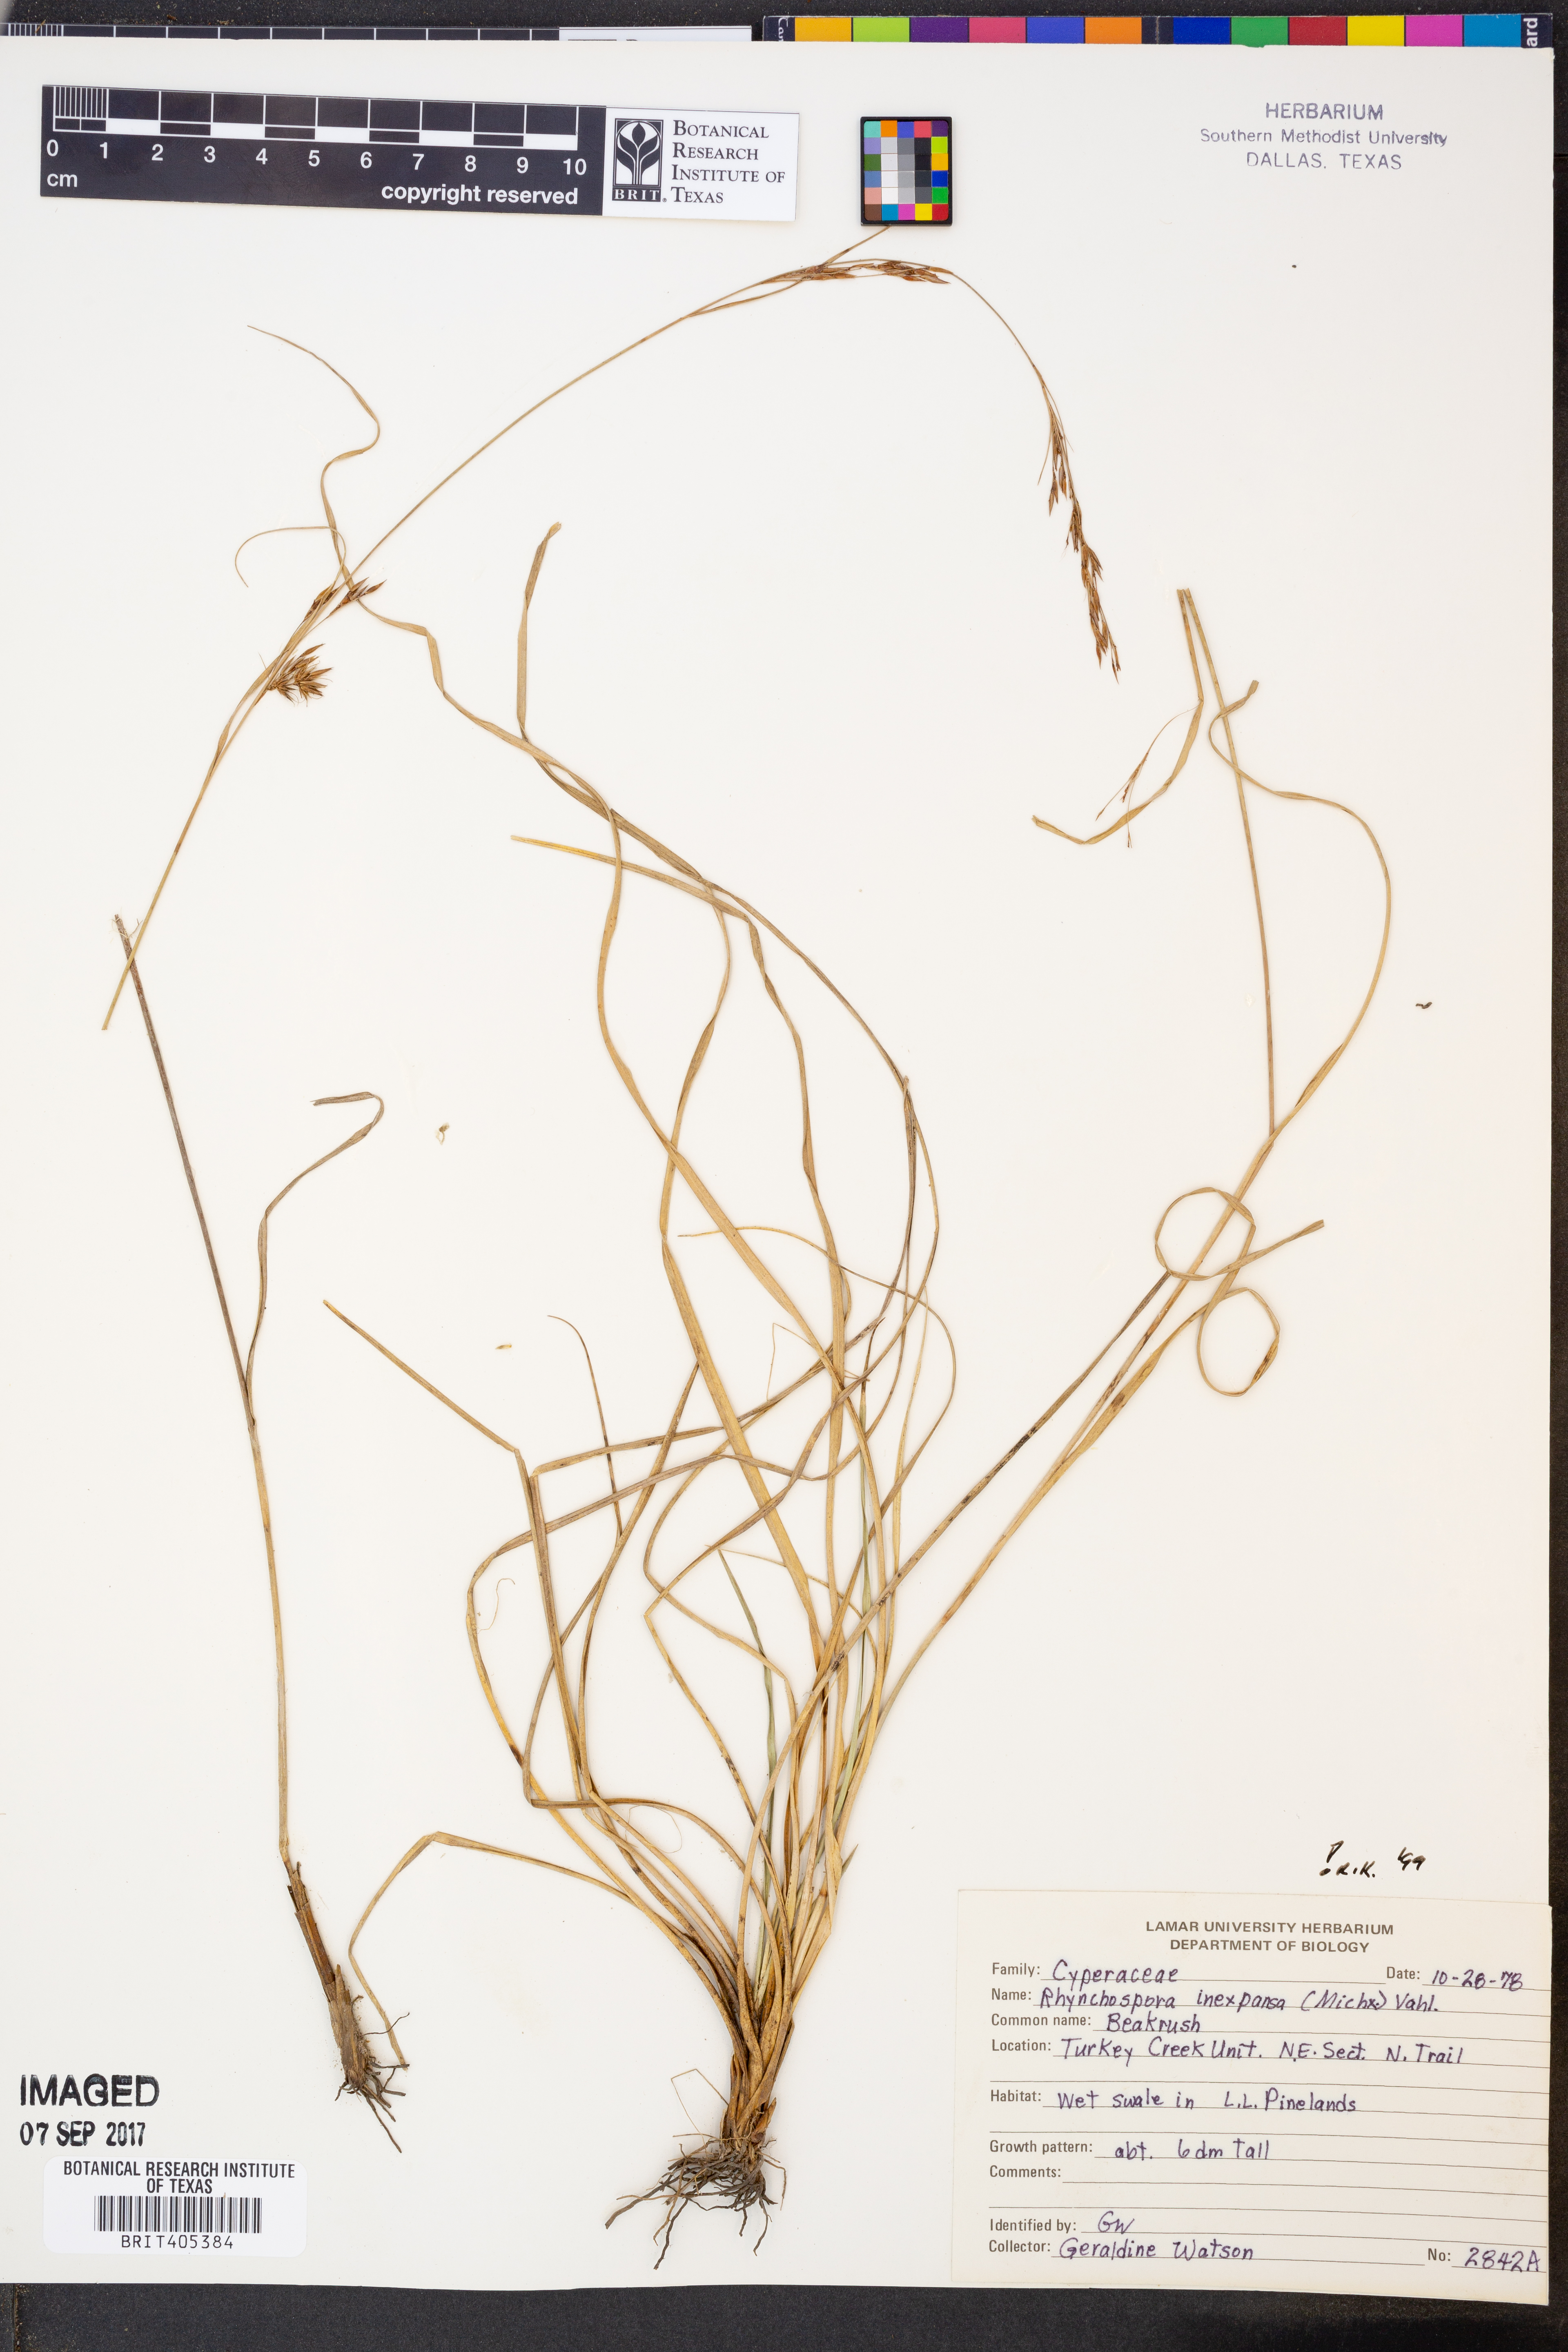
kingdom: Plantae
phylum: Tracheophyta
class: Liliopsida
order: Poales
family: Cyperaceae
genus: Rhynchospora
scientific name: Rhynchospora inexpansa
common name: Nodding beaksedge
